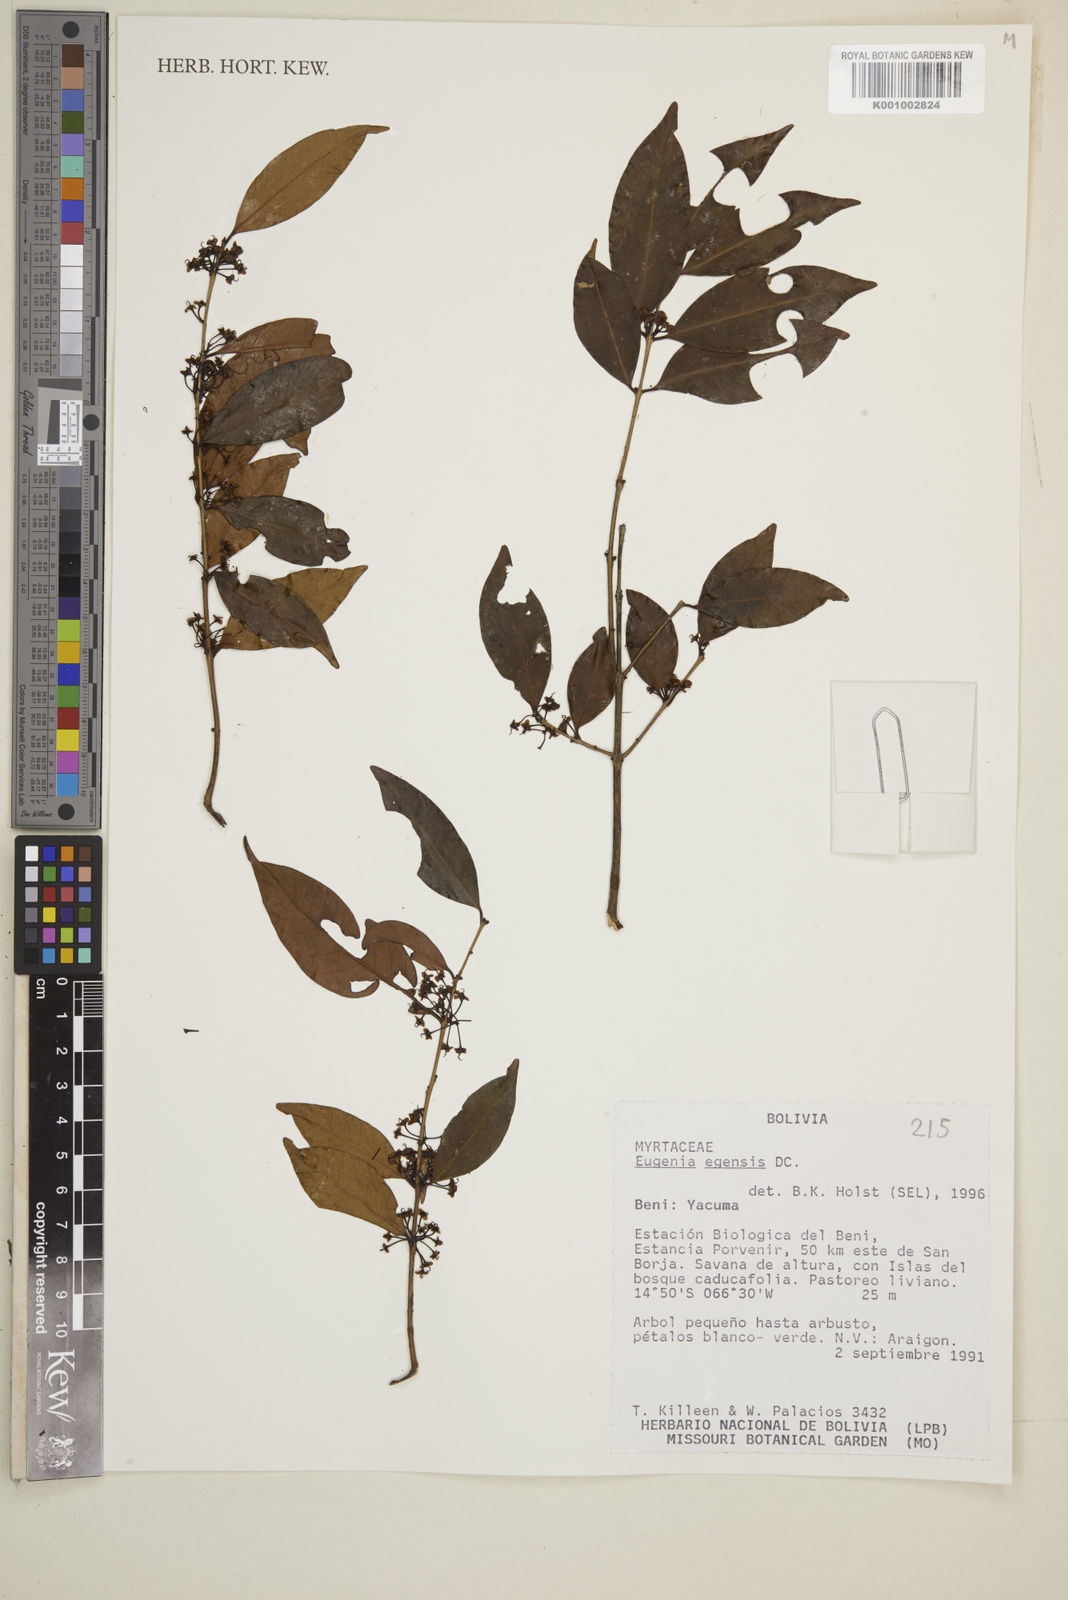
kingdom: Plantae
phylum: Tracheophyta
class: Magnoliopsida
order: Myrtales
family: Myrtaceae
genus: Eugenia
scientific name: Eugenia egensis
